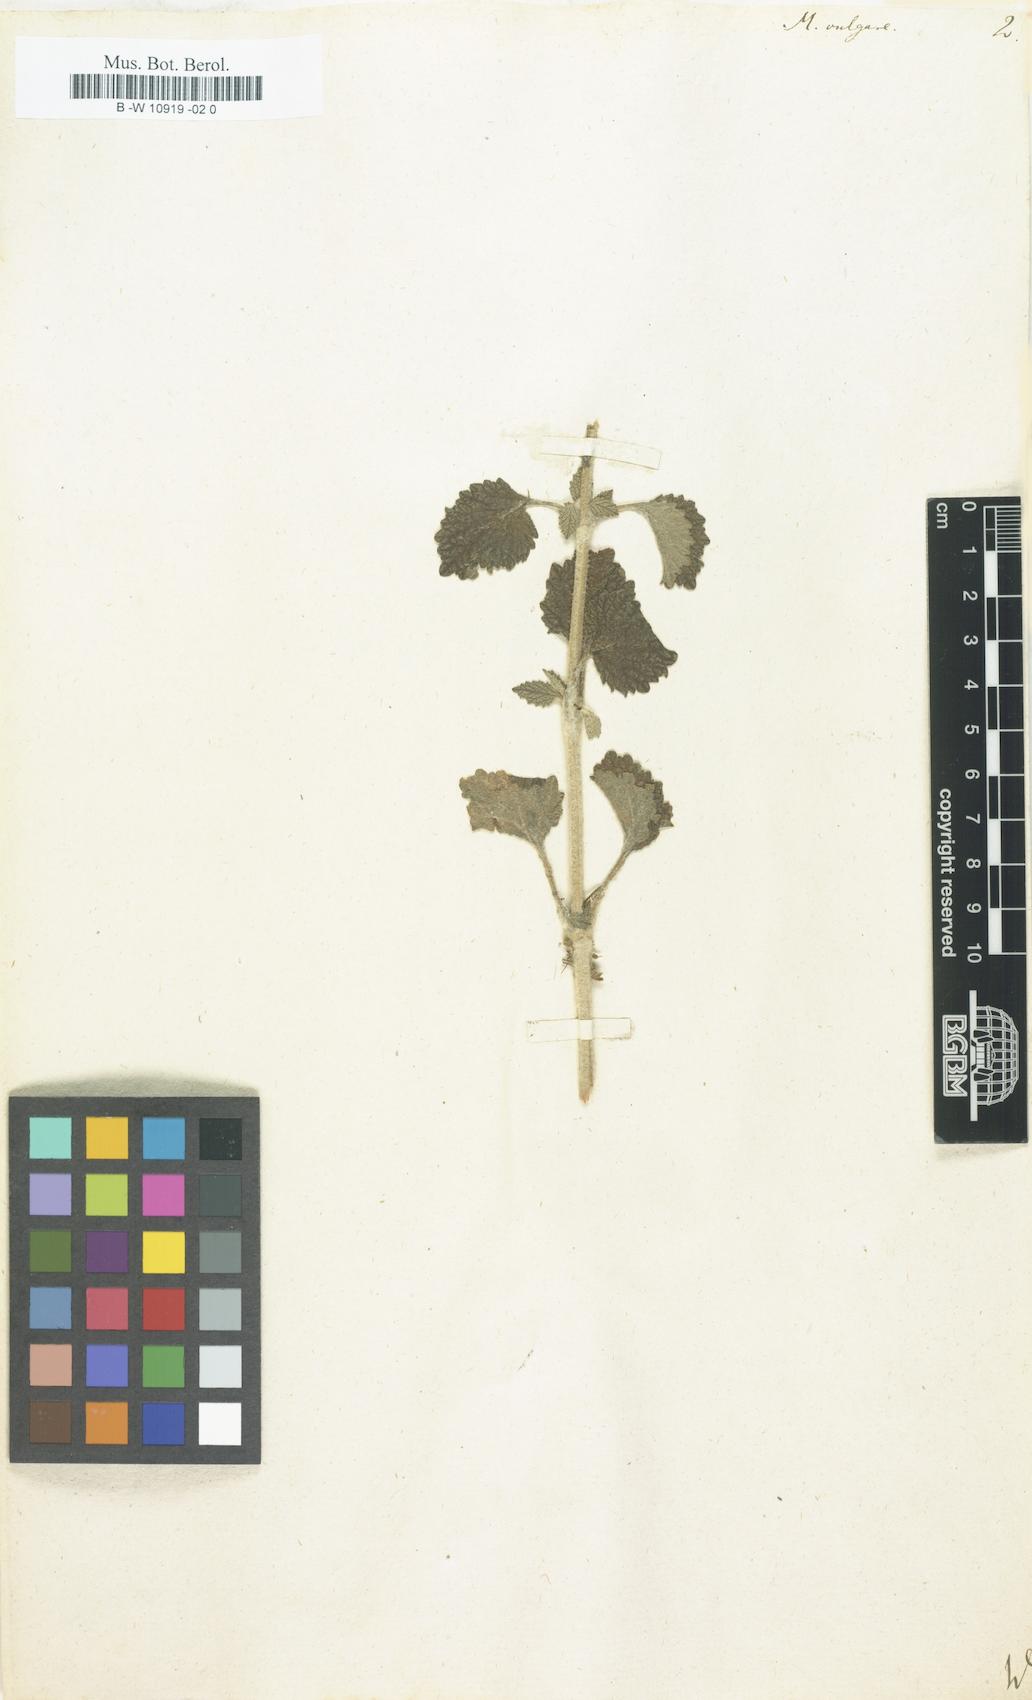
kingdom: Plantae
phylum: Tracheophyta
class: Magnoliopsida
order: Lamiales
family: Lamiaceae
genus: Marrubium
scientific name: Marrubium vulgare
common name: Horehound
